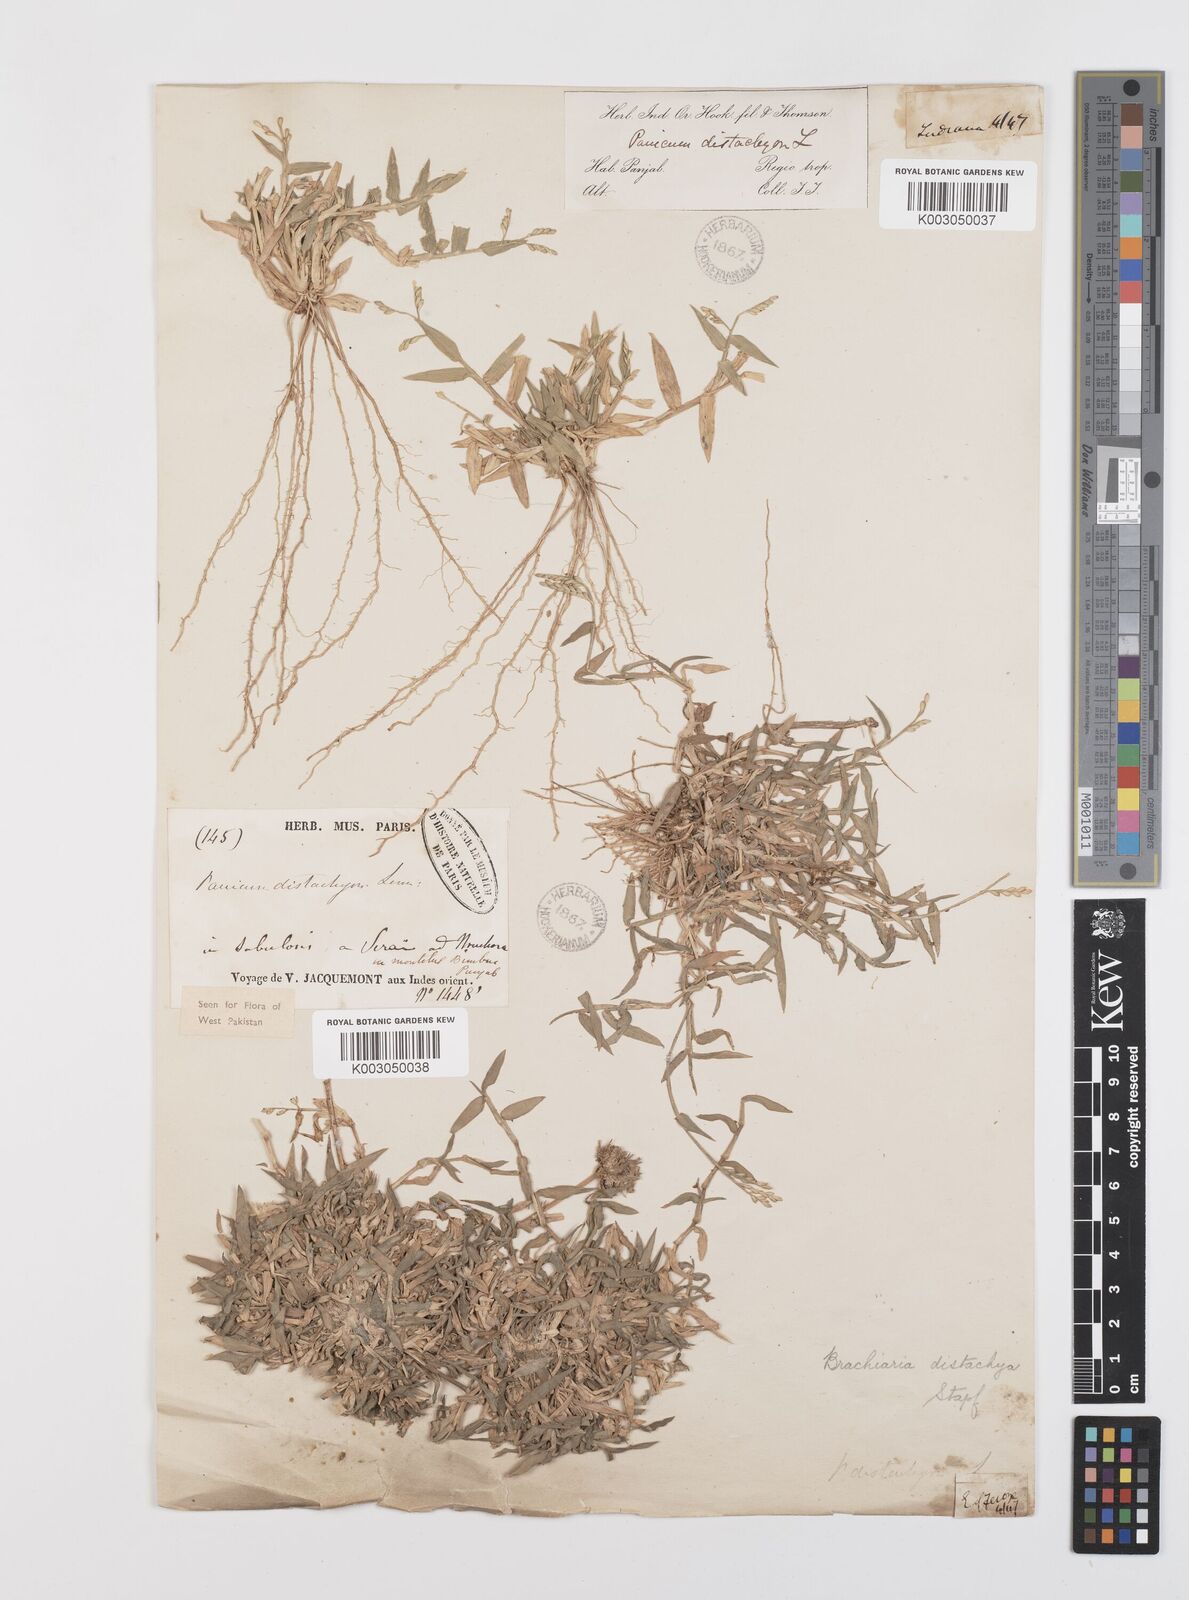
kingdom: Plantae
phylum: Tracheophyta
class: Liliopsida
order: Poales
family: Poaceae
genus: Urochloa
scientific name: Urochloa distachyos
